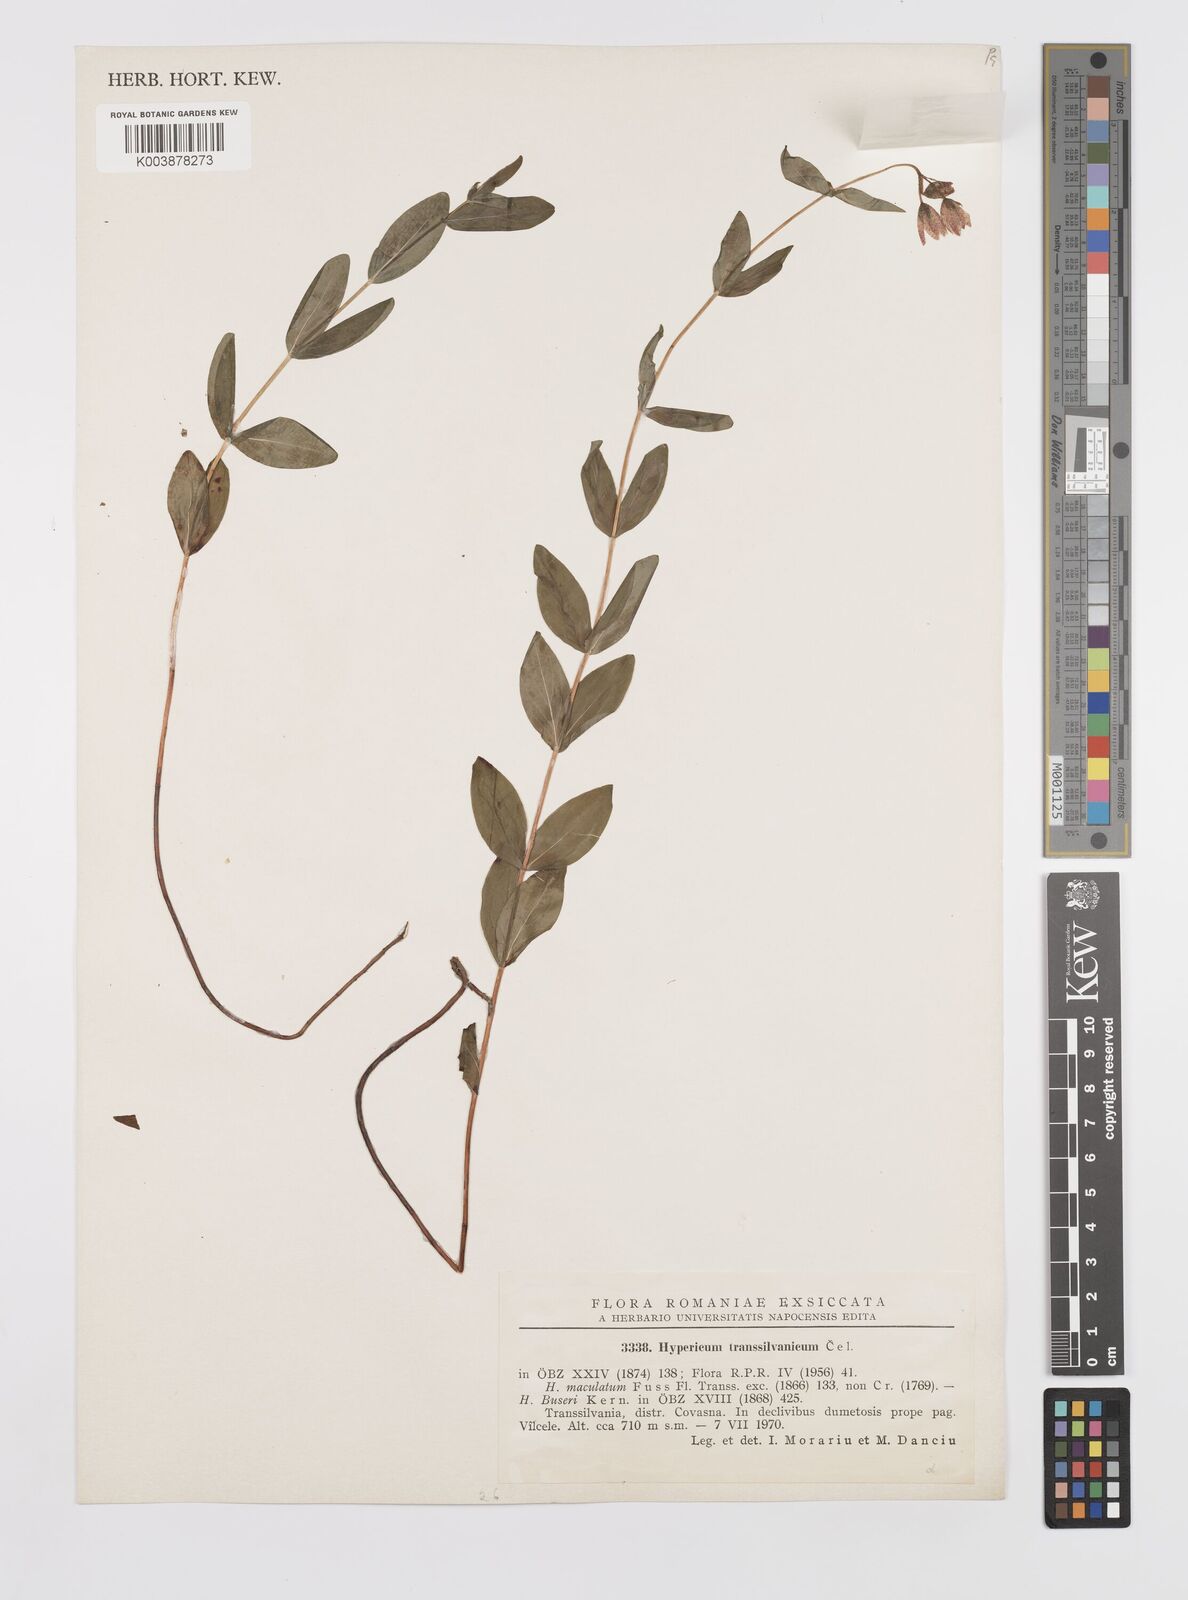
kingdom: Plantae
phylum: Tracheophyta
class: Magnoliopsida
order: Malpighiales
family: Hypericaceae
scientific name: Hypericaceae
